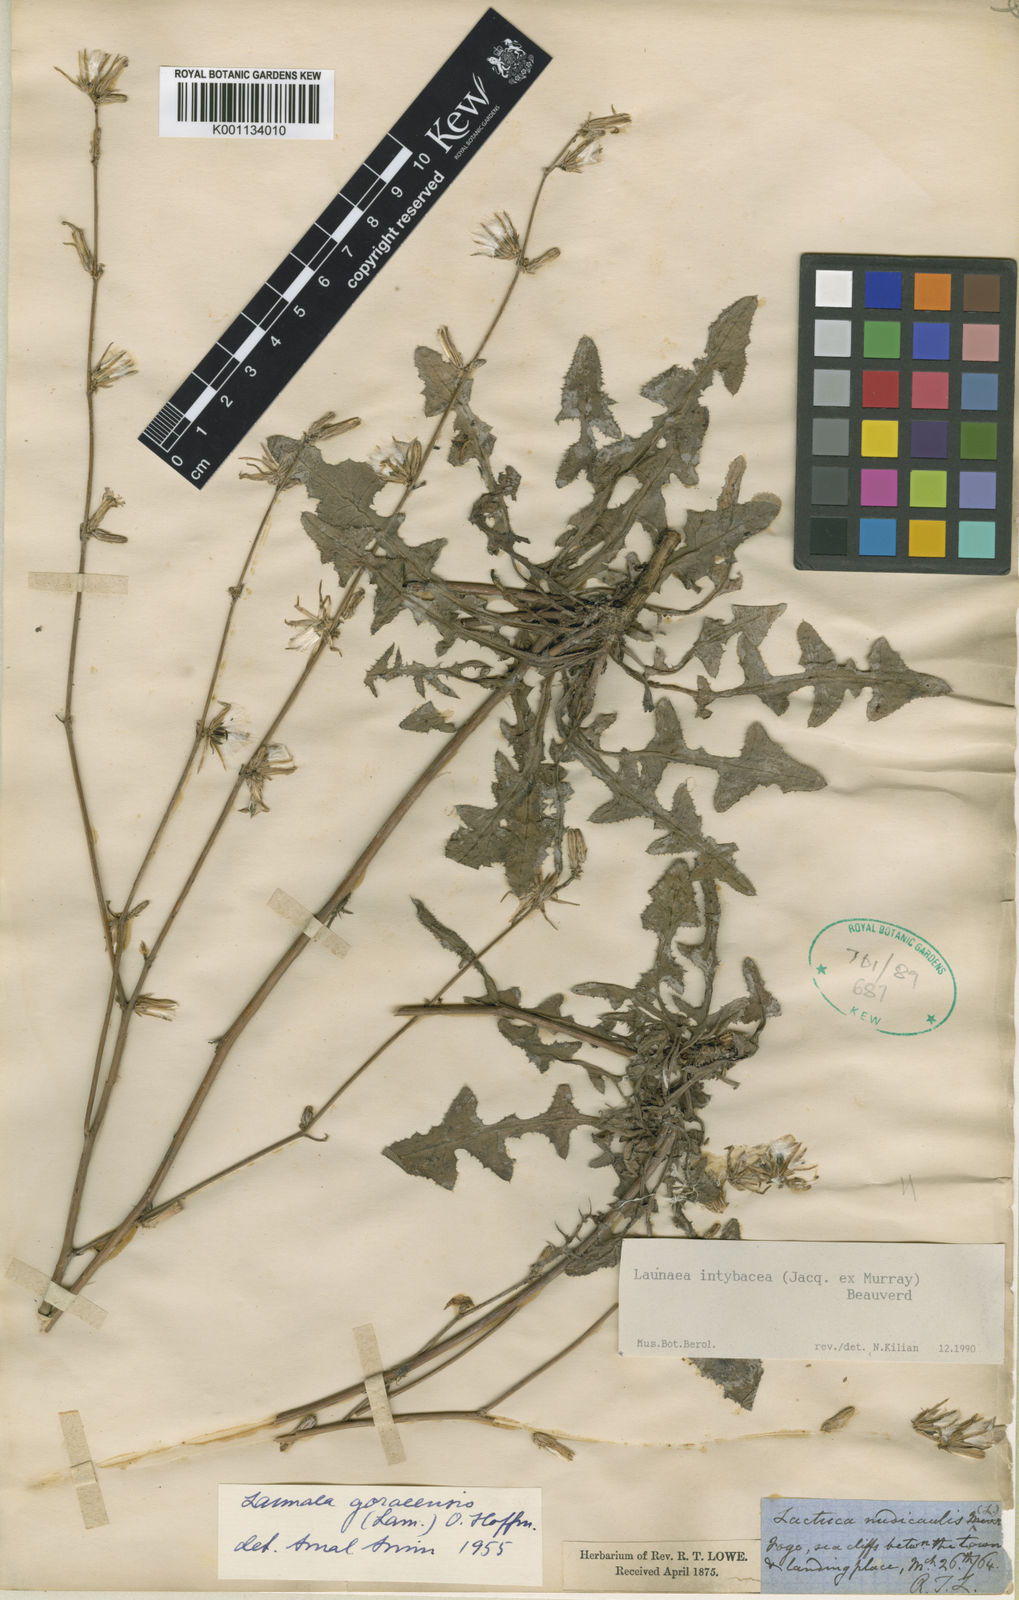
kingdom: Plantae
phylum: Tracheophyta
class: Magnoliopsida
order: Asterales
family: Asteraceae
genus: Launaea
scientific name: Launaea intybacea
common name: Achicoria azul
